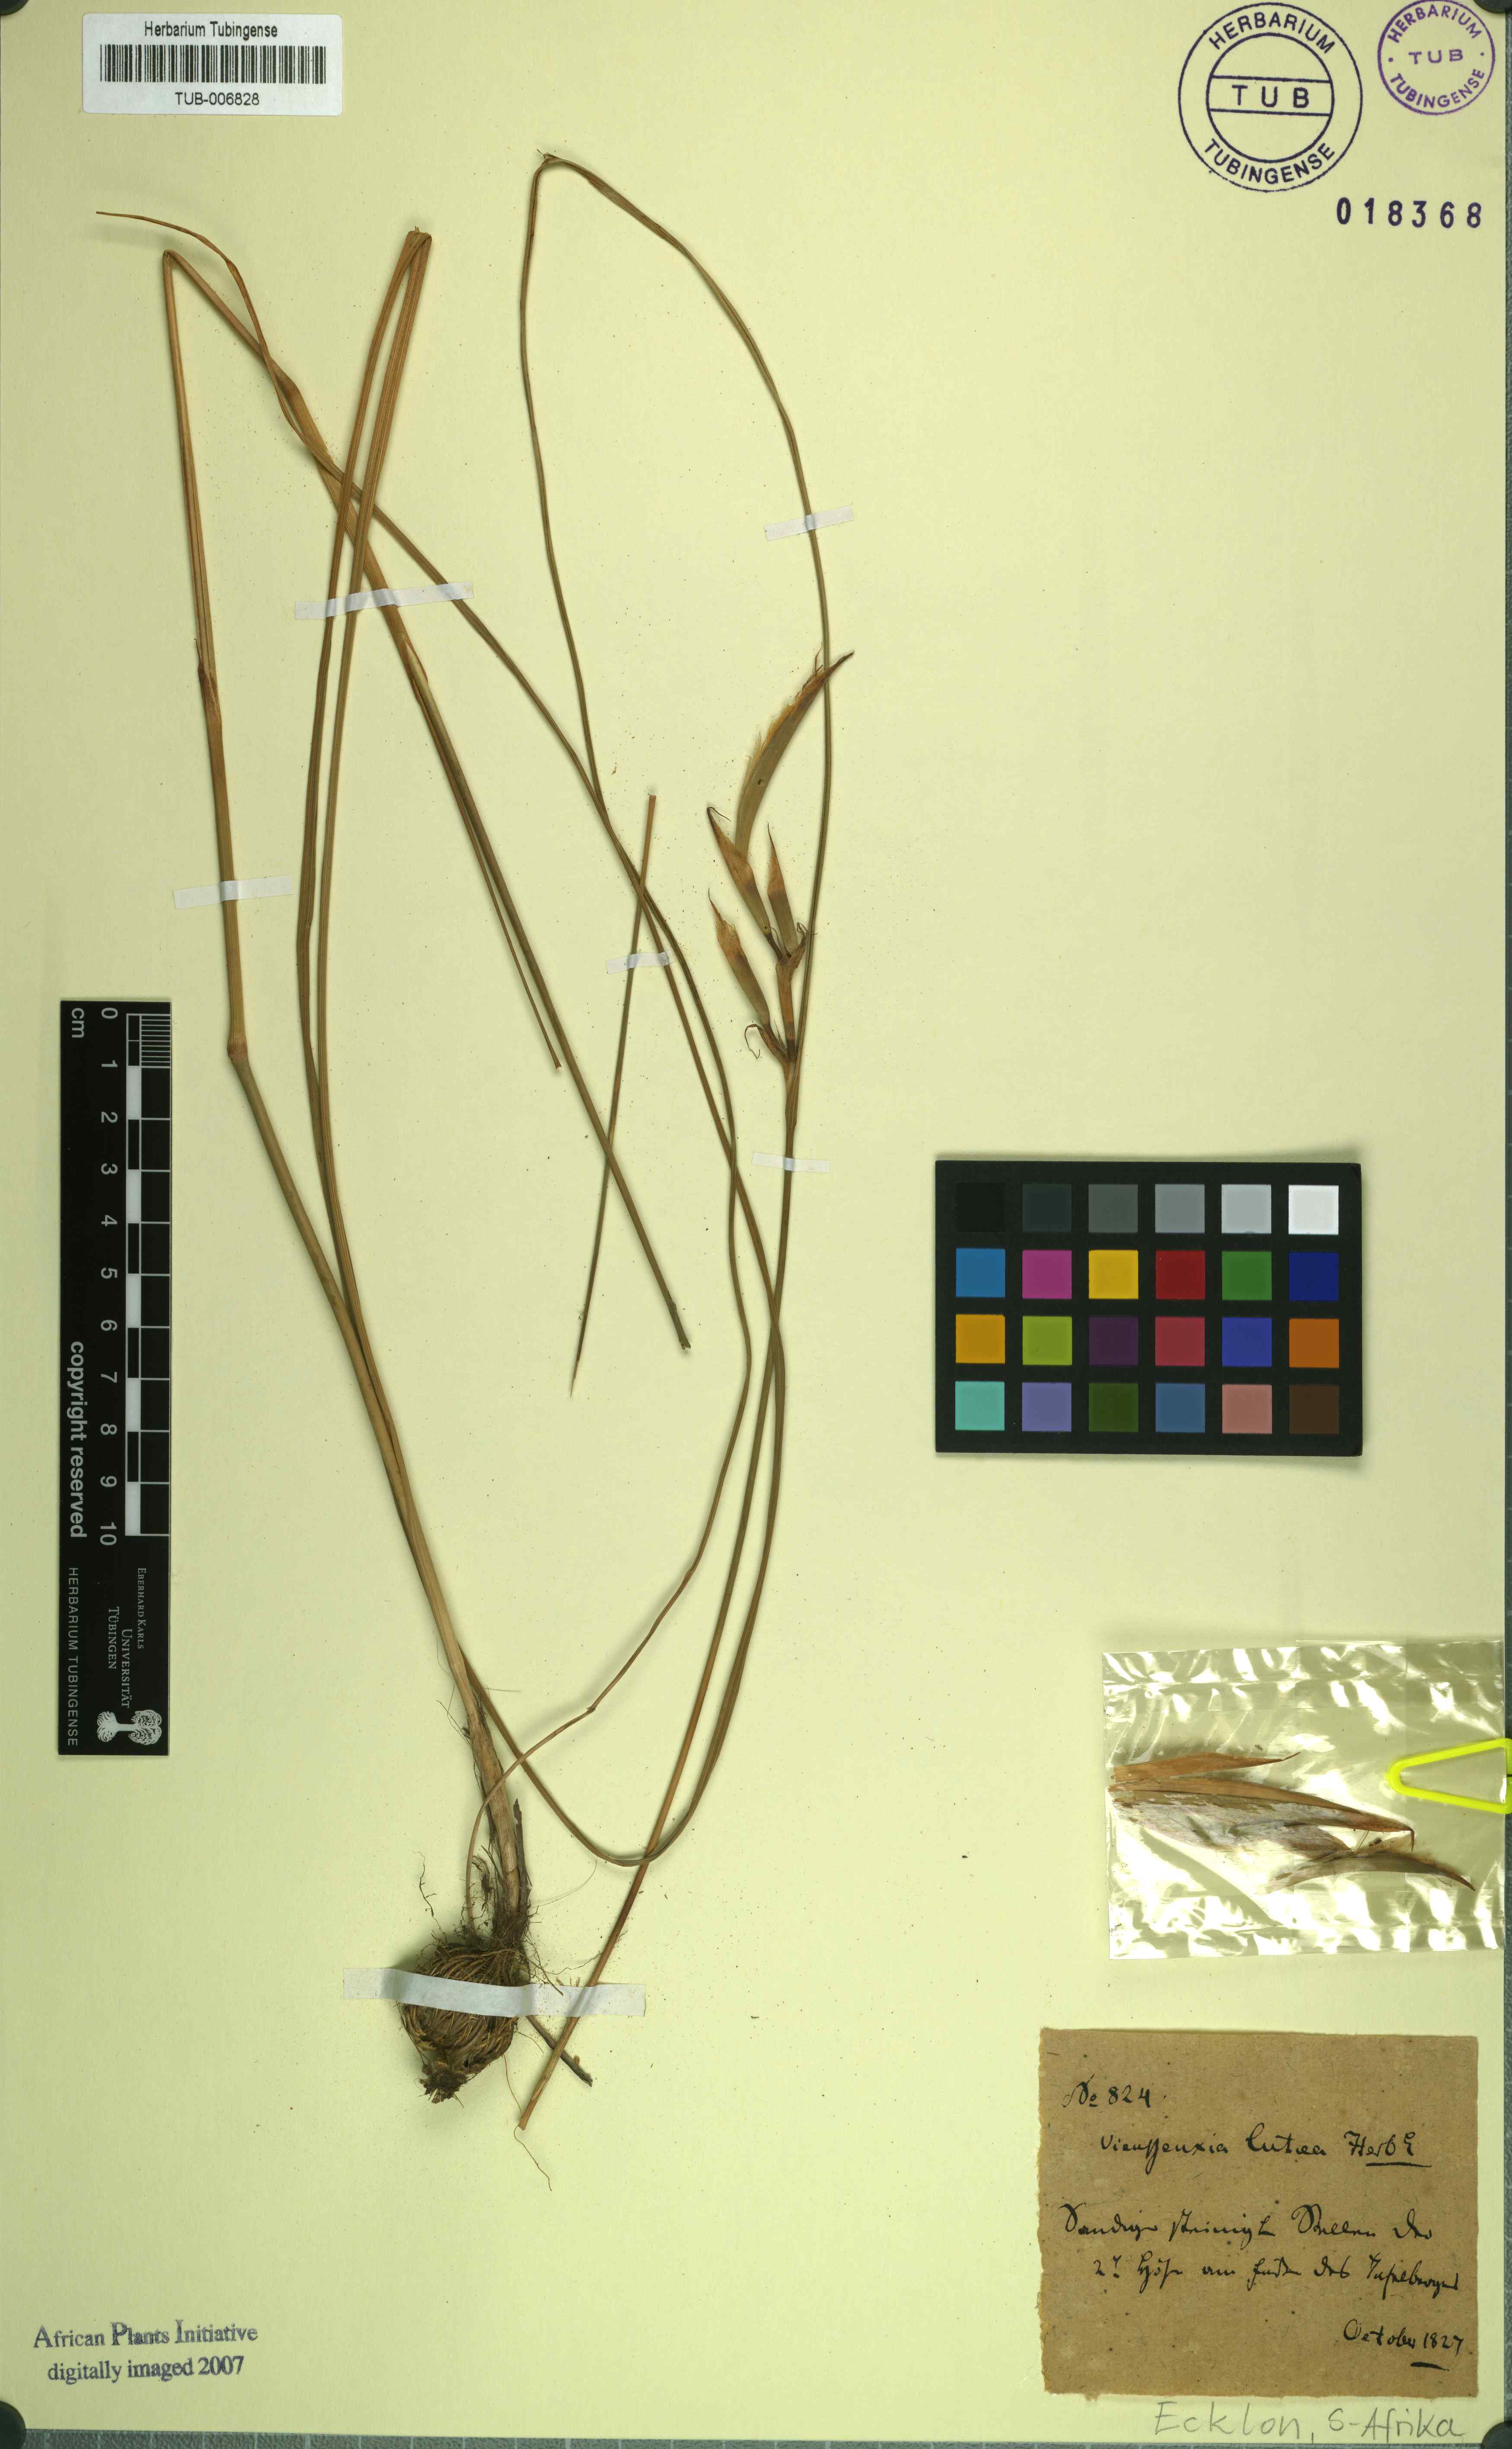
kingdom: Plantae
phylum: Tracheophyta
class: Liliopsida
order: Asparagales
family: Iridaceae
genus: Moraea
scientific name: Moraea
